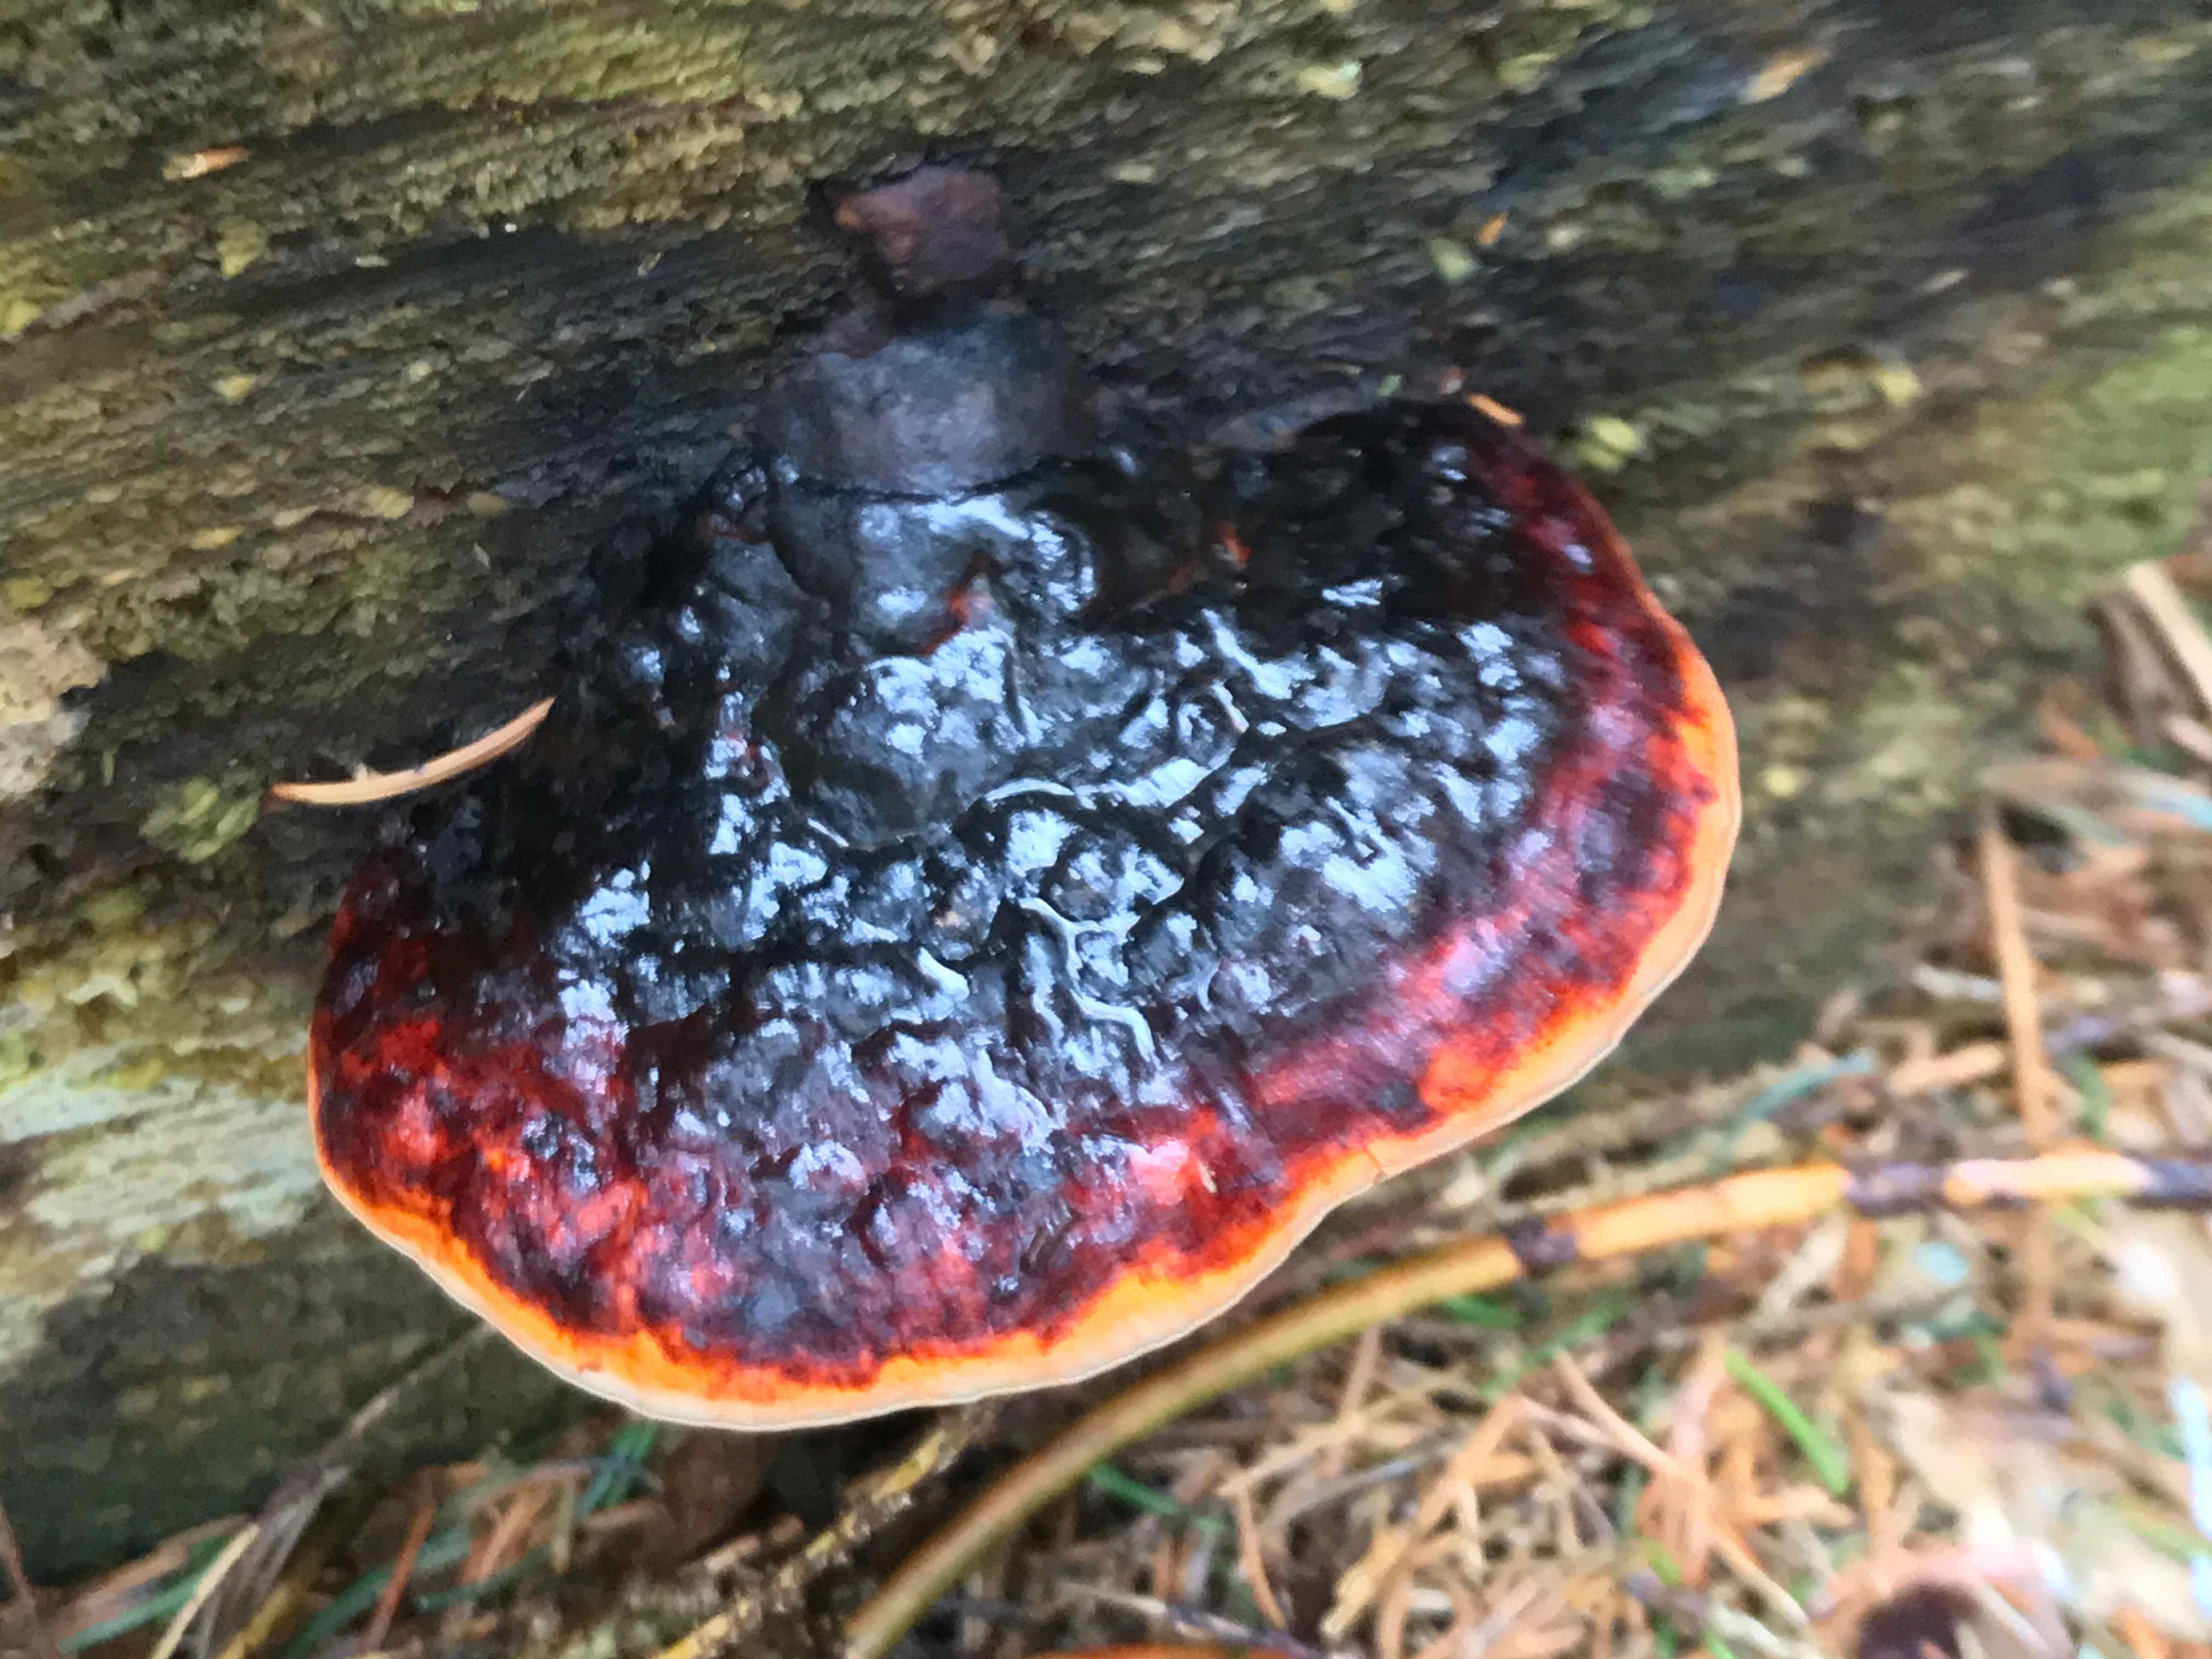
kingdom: Fungi
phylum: Basidiomycota
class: Agaricomycetes
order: Polyporales
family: Fomitopsidaceae
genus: Fomitopsis
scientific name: Fomitopsis pinicola
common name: randbæltet hovporesvamp
